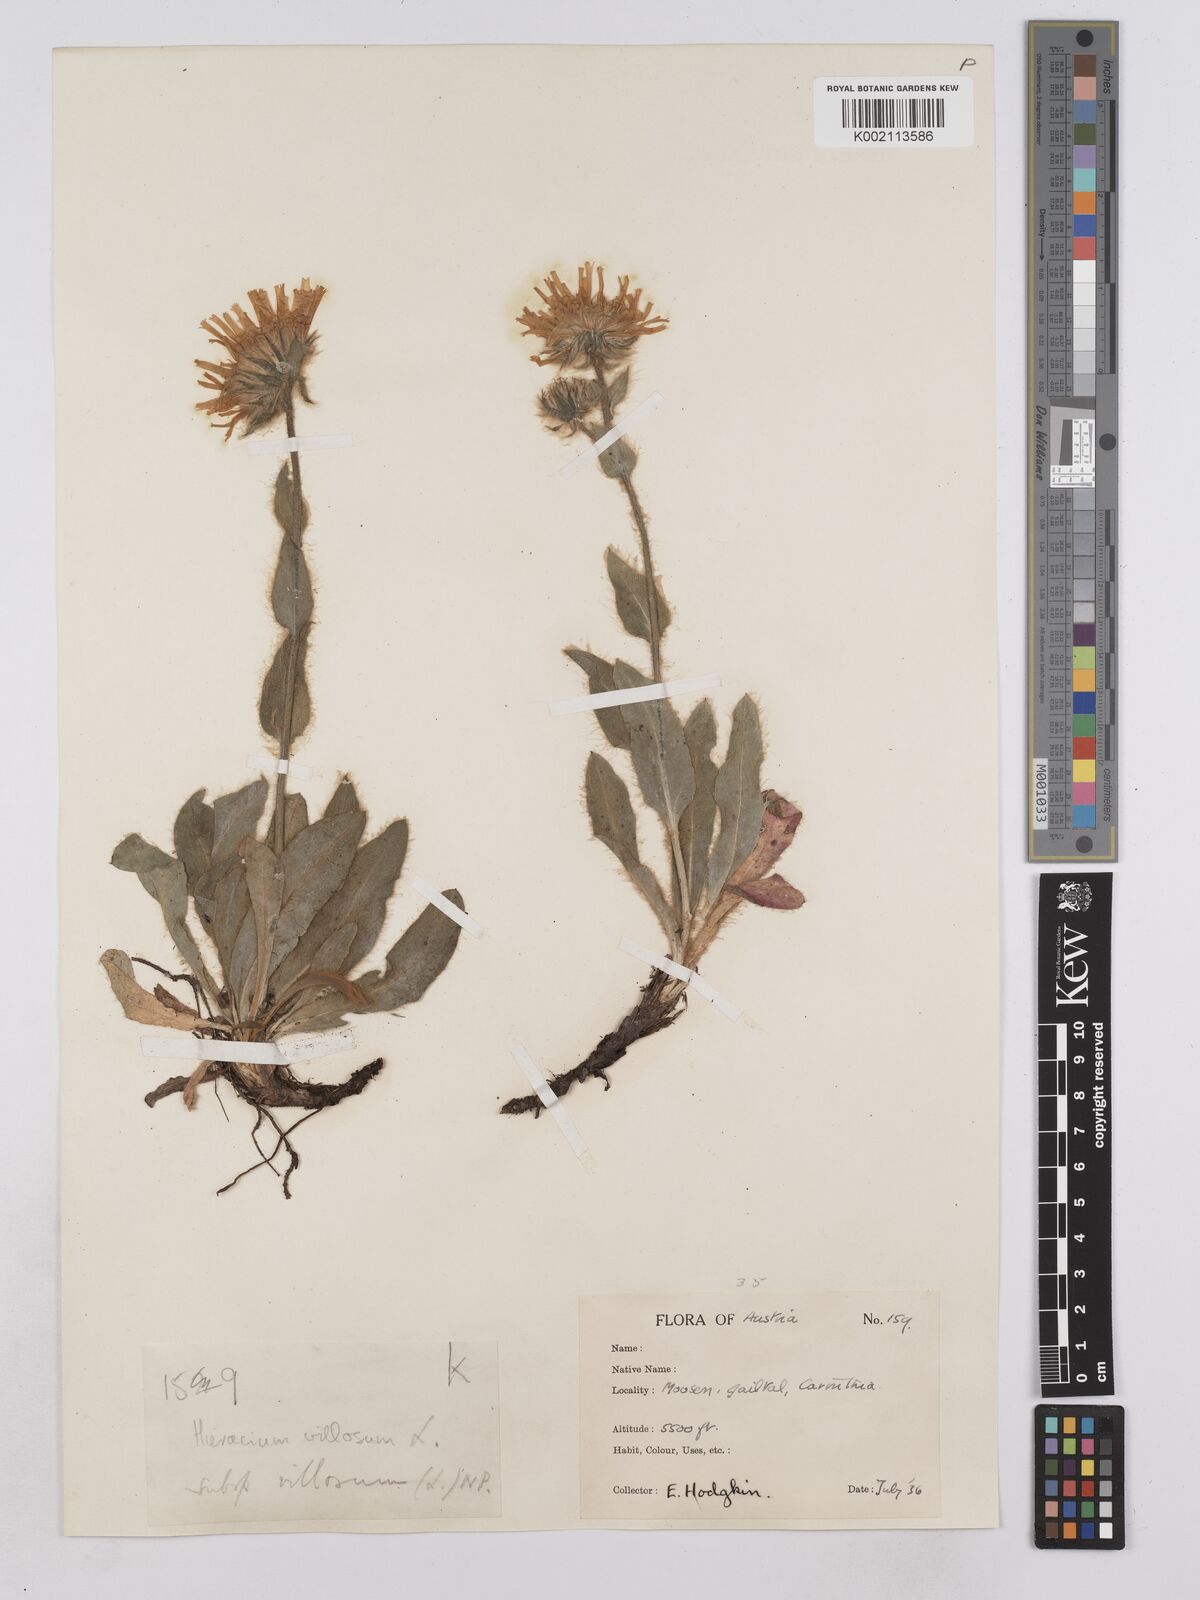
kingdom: Plantae
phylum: Tracheophyta
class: Magnoliopsida
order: Asterales
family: Asteraceae
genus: Hieracium
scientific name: Hieracium villosum
